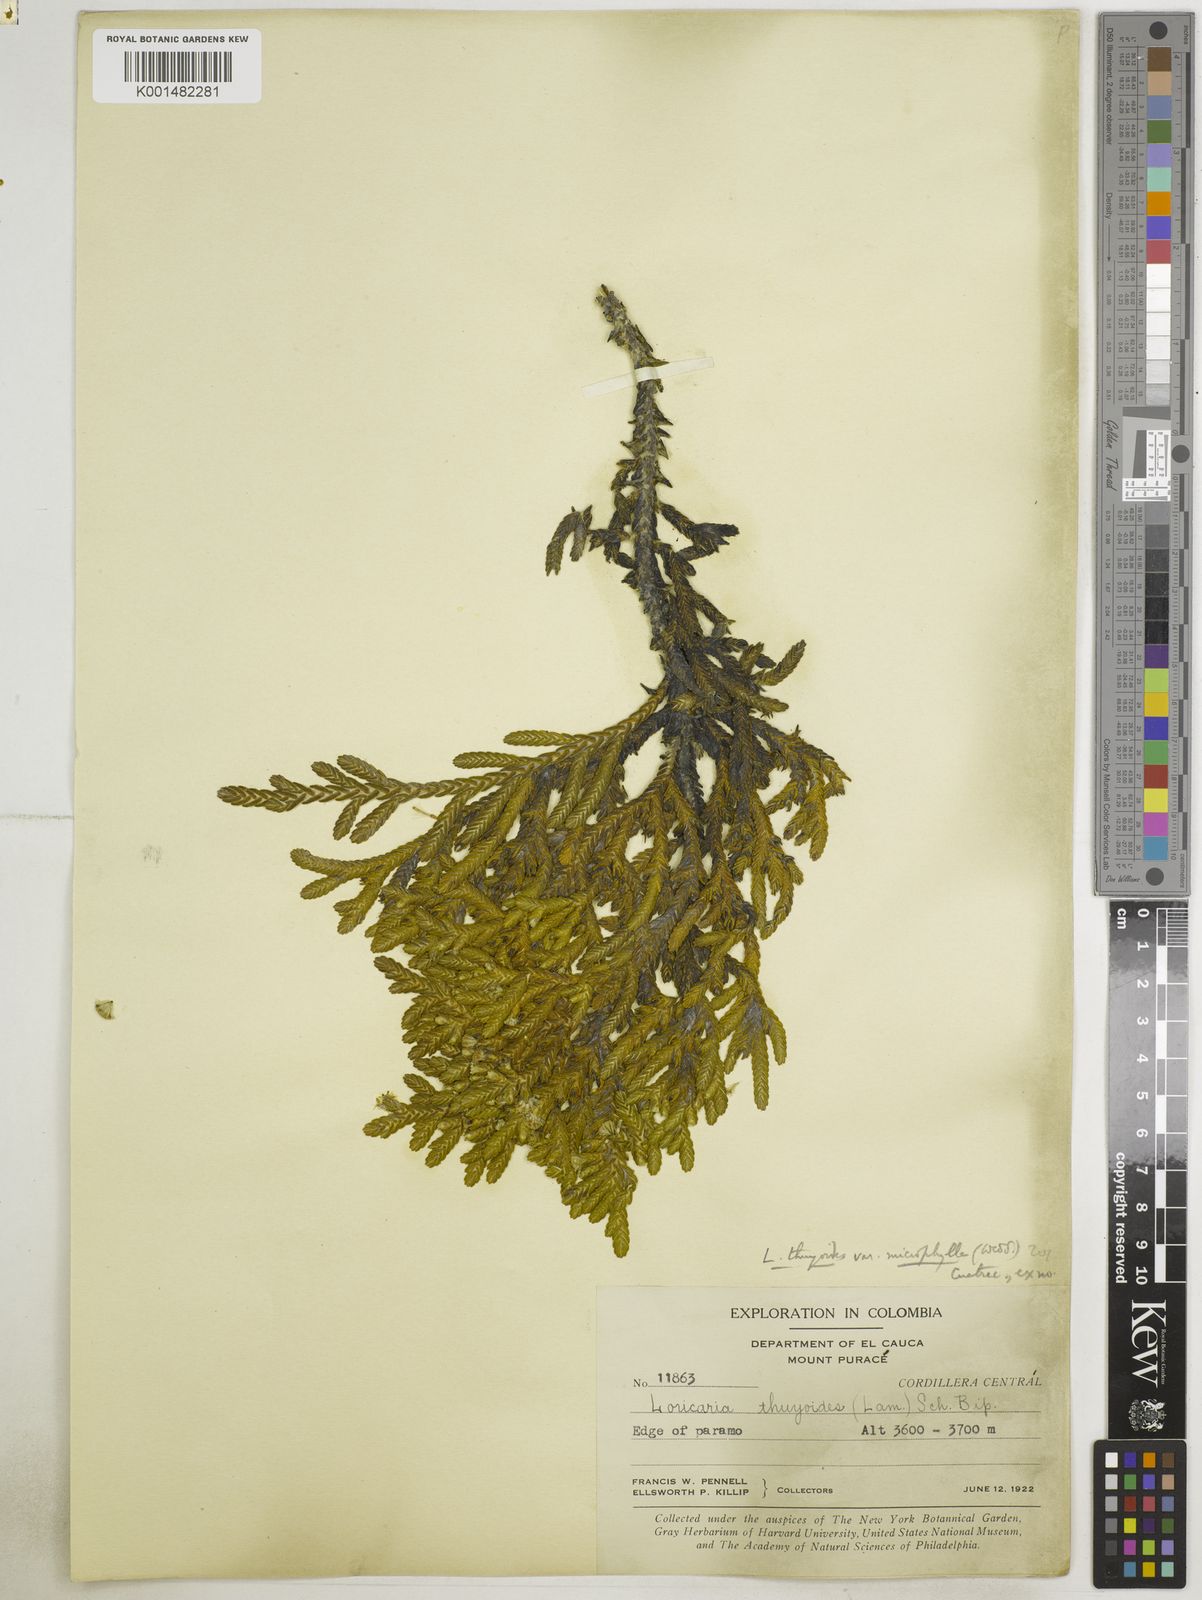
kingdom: Plantae
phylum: Tracheophyta
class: Magnoliopsida
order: Asterales
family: Asteraceae
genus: Andicolea
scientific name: Andicolea thuyoides
